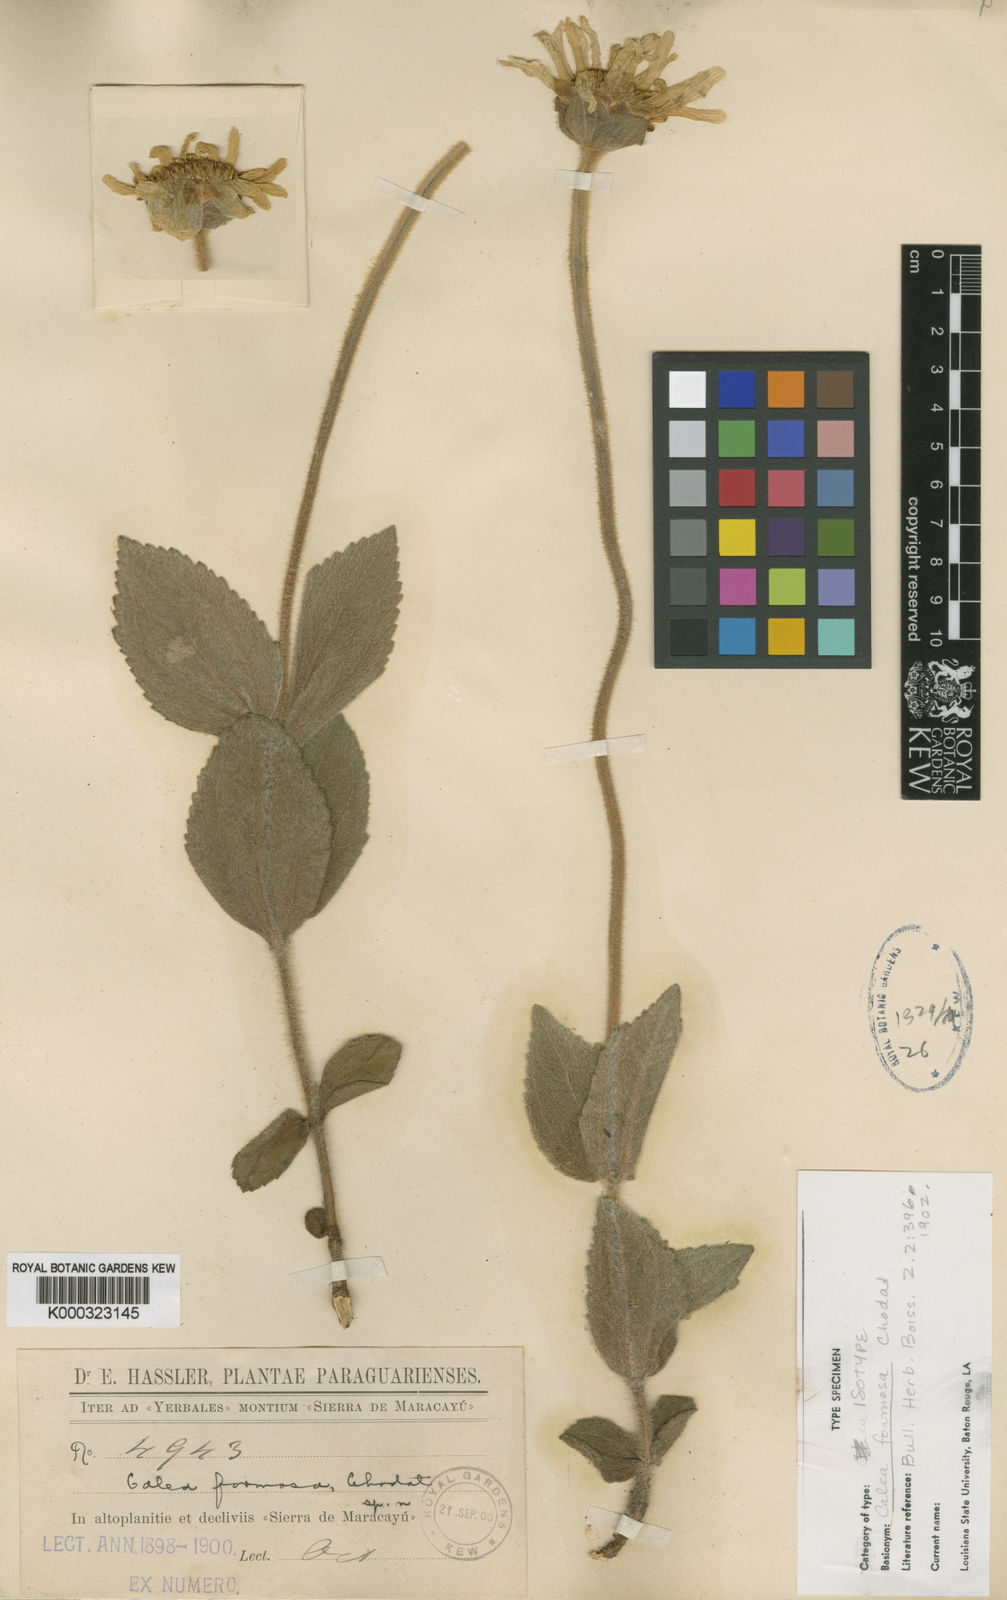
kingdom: Plantae
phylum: Tracheophyta
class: Magnoliopsida
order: Asterales
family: Asteraceae
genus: Calea
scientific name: Calea formosa
